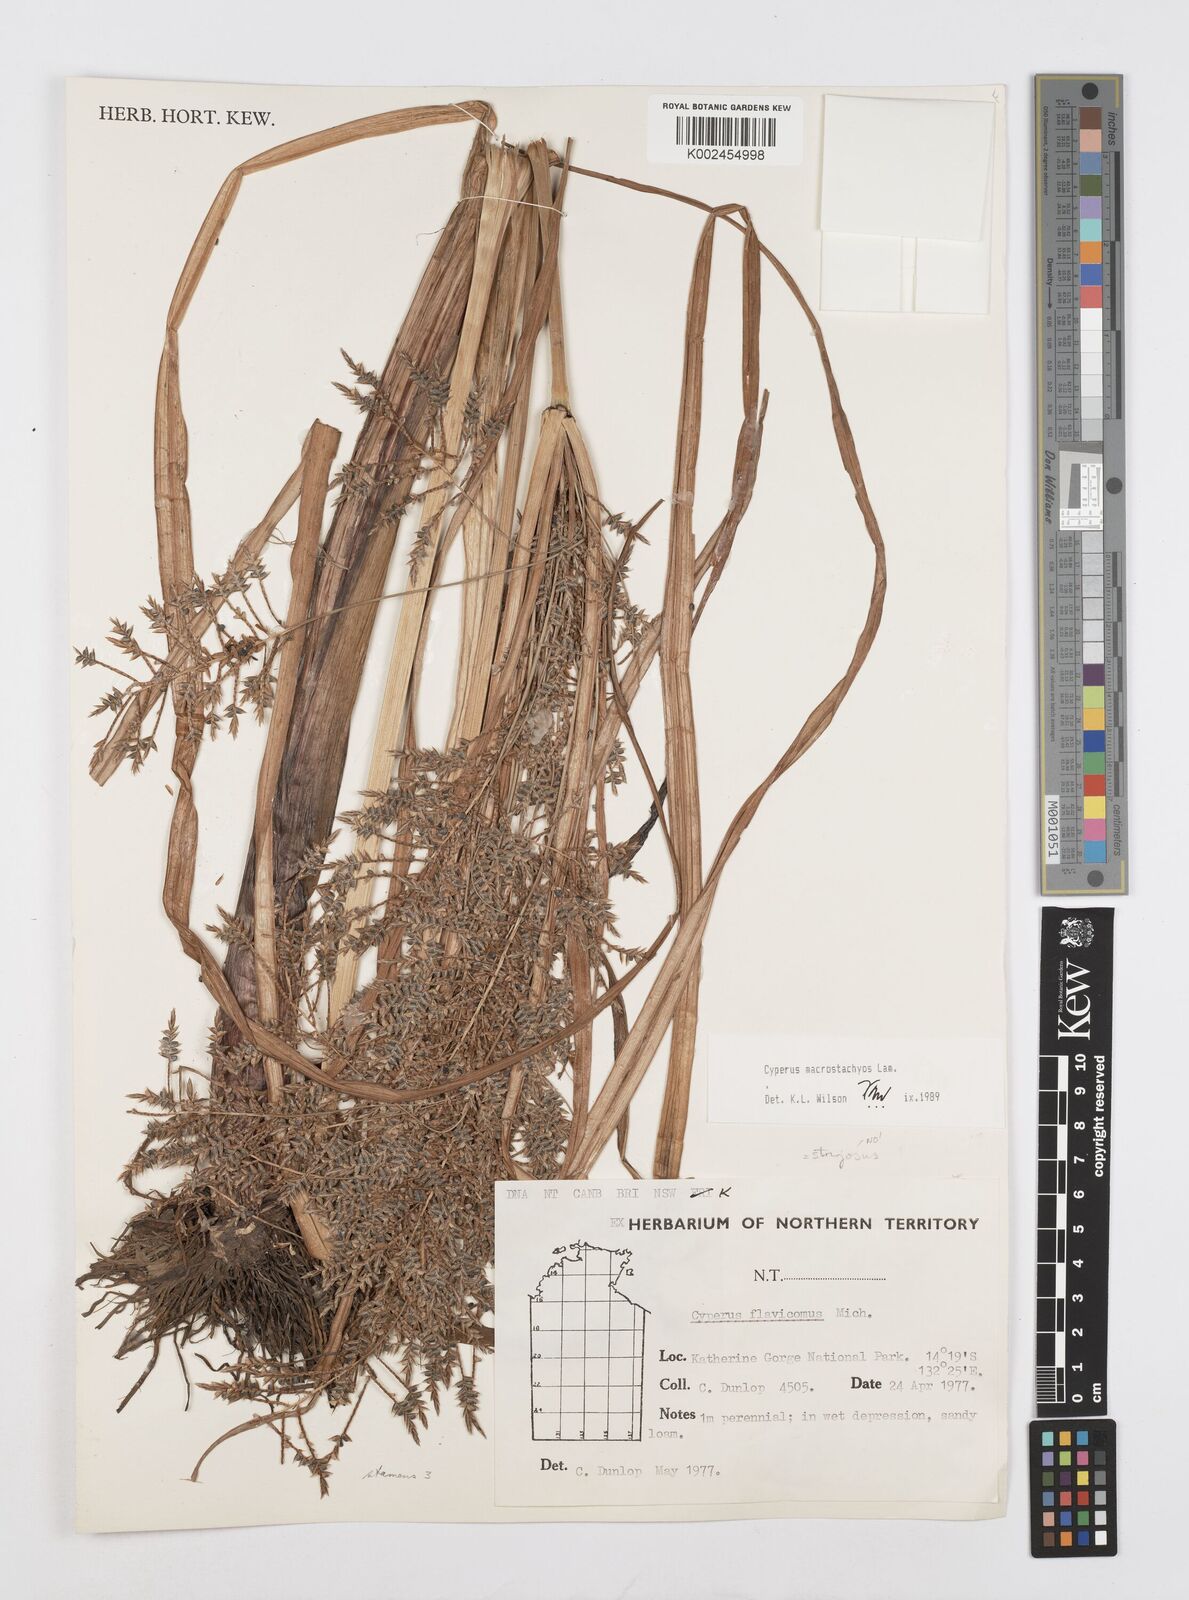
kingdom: Plantae
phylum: Tracheophyta
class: Liliopsida
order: Poales
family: Cyperaceae
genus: Cyperus
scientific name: Cyperus macrostachyos
